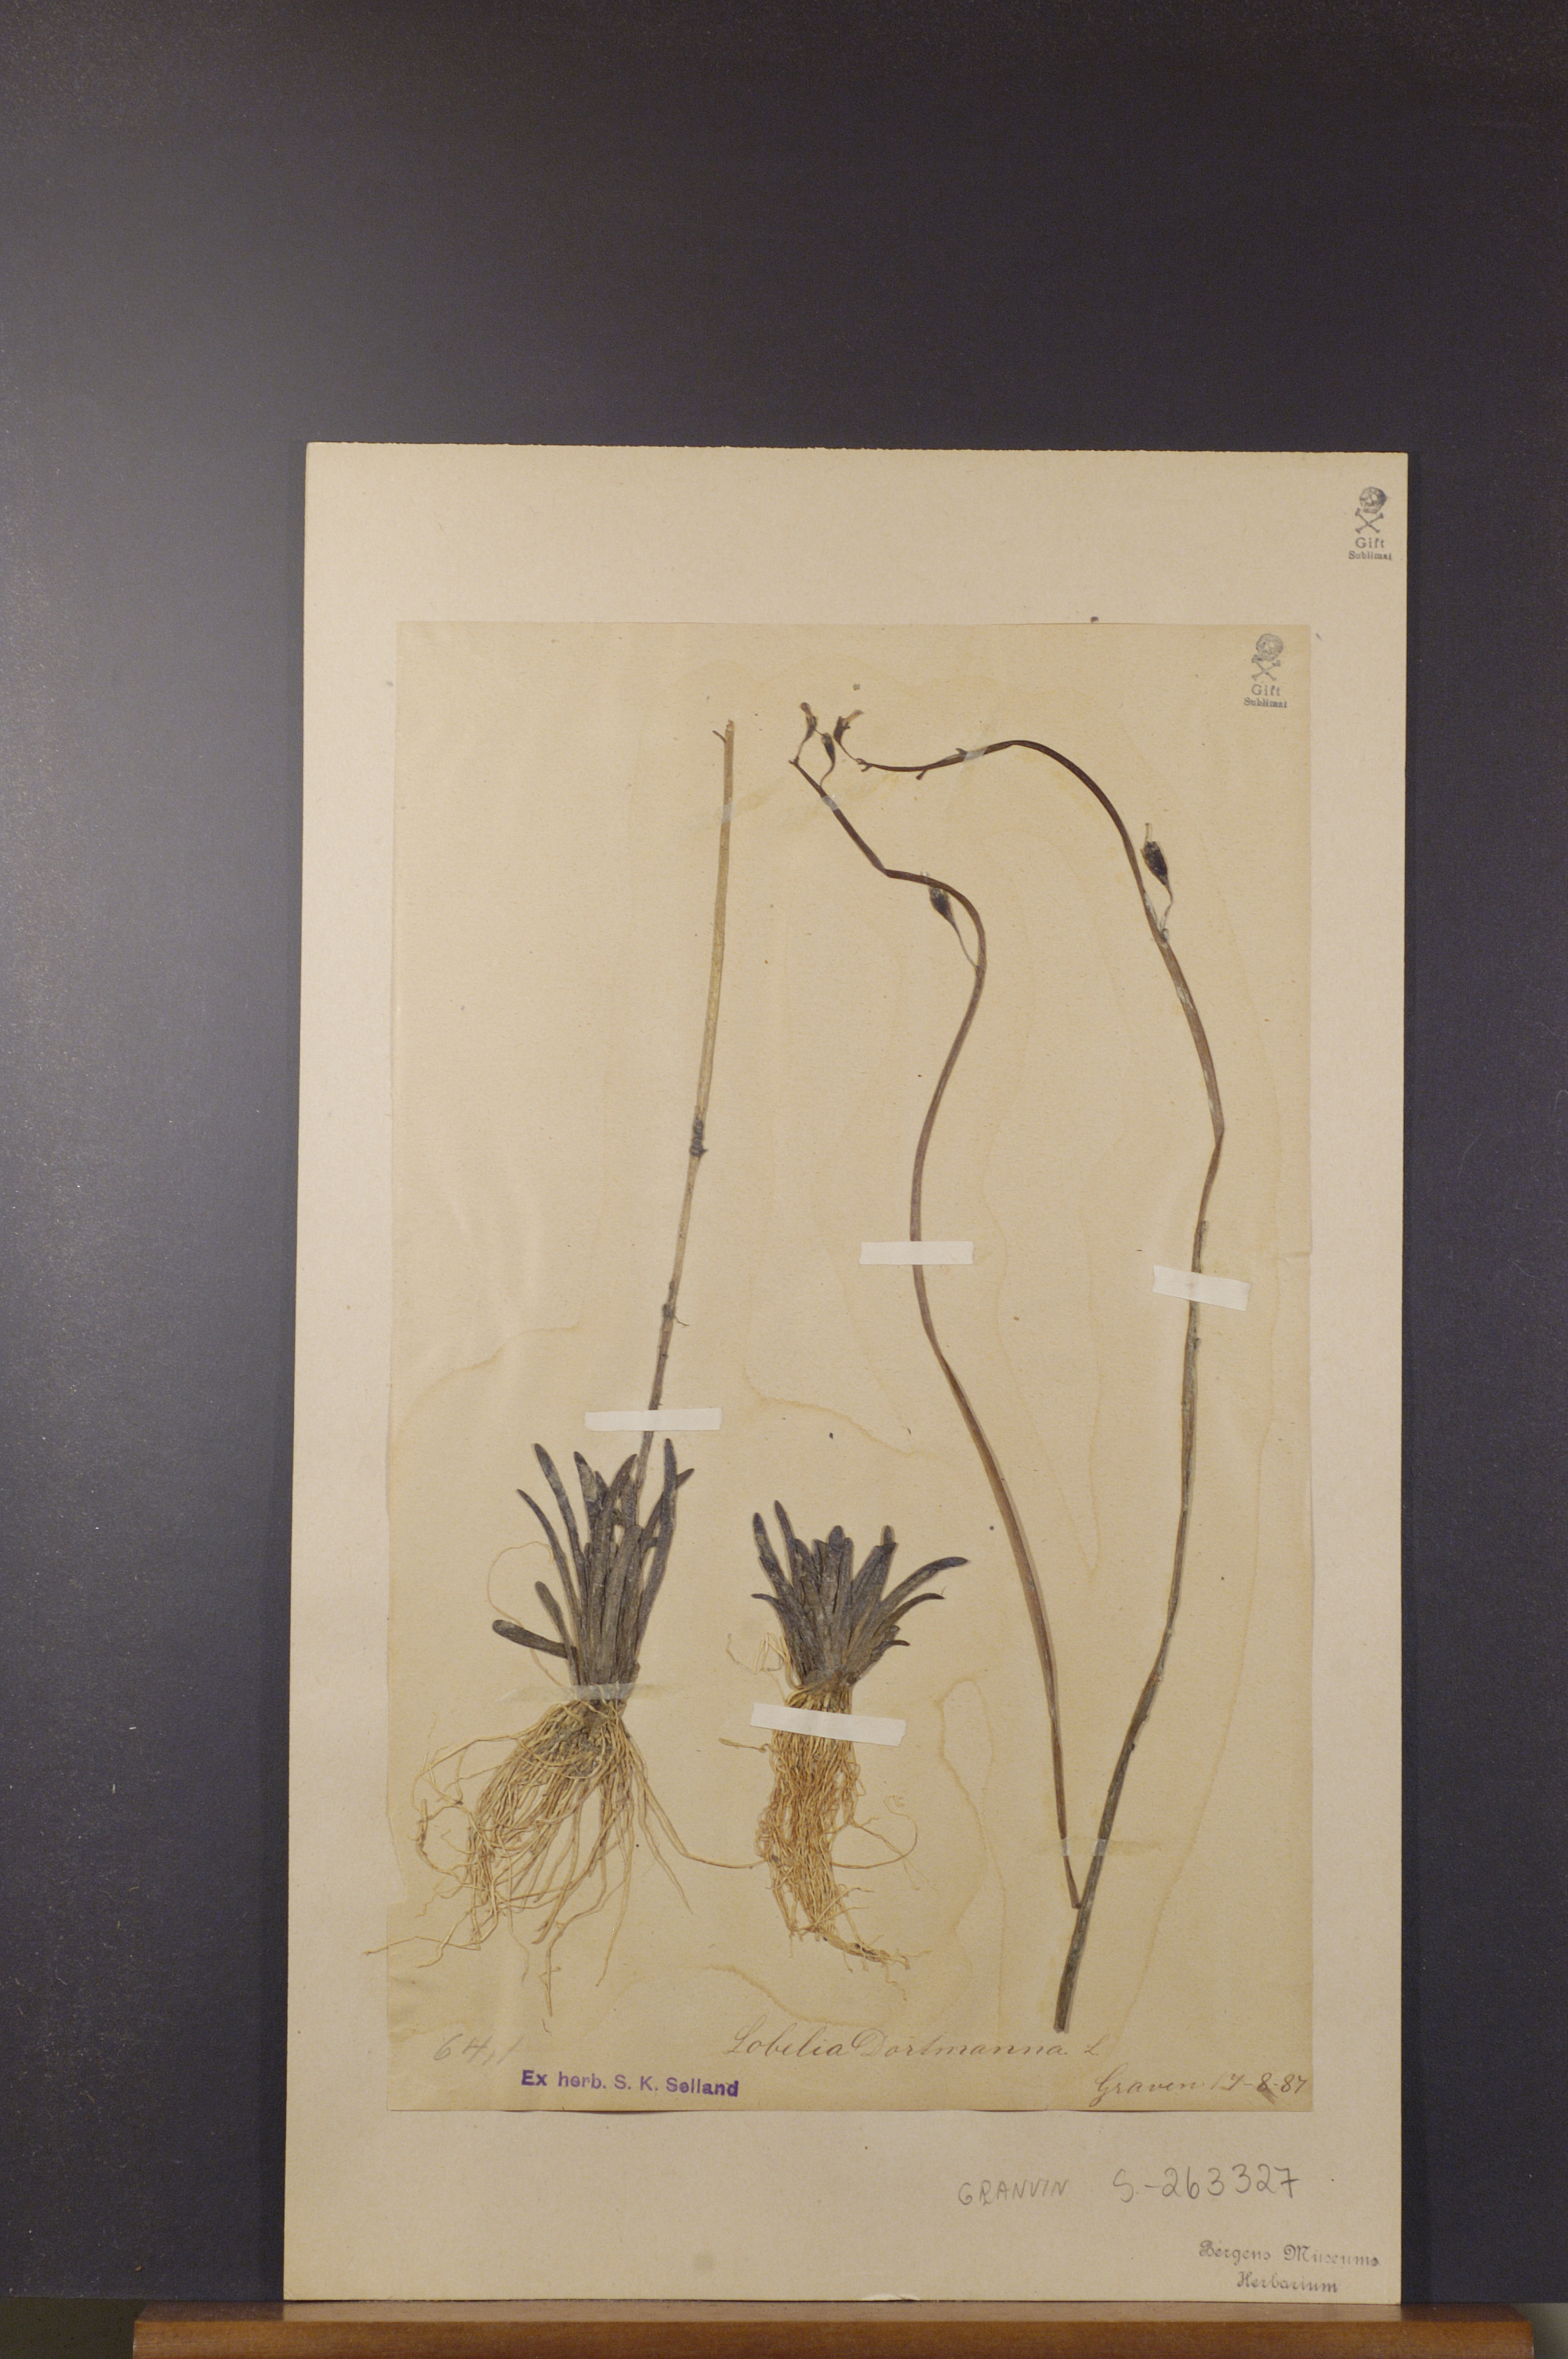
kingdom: Plantae
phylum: Tracheophyta
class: Magnoliopsida
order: Asterales
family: Campanulaceae
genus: Lobelia
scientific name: Lobelia dortmanna
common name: Water lobelia
